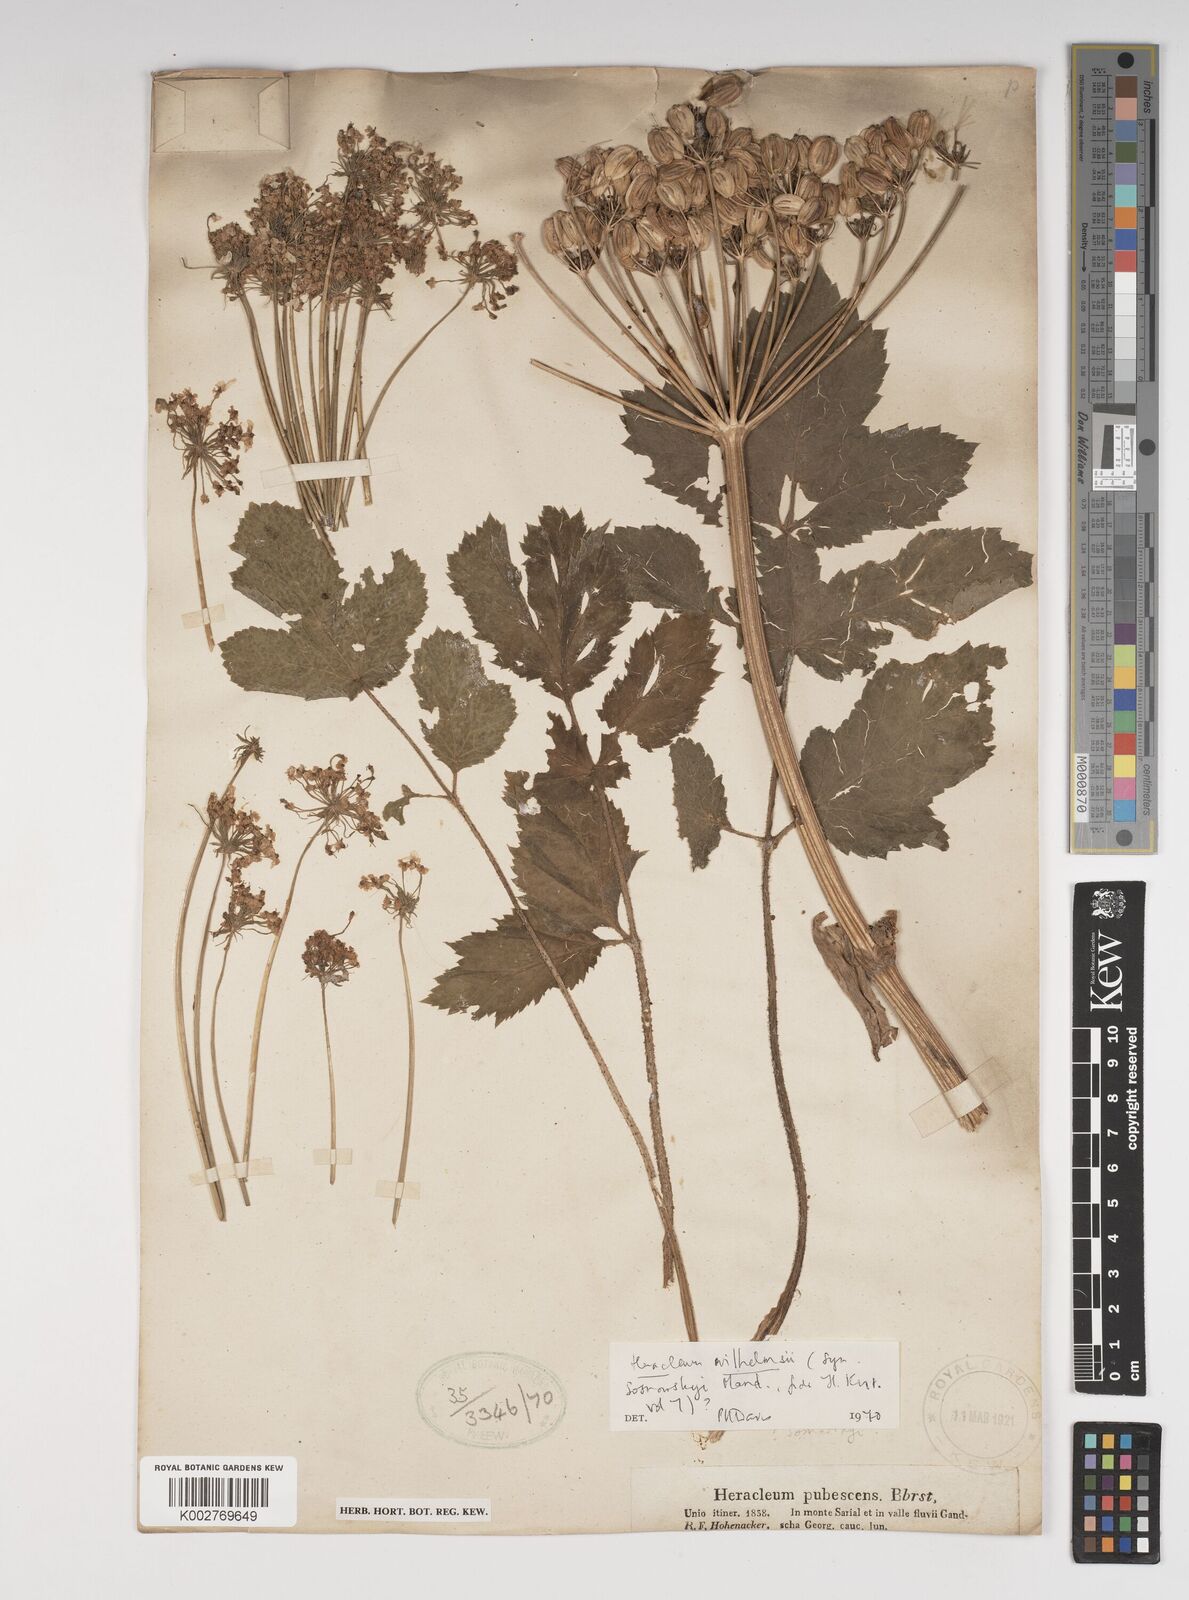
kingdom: Plantae
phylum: Tracheophyta
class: Magnoliopsida
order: Apiales
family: Apiaceae
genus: Heracleum
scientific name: Heracleum pubescens
